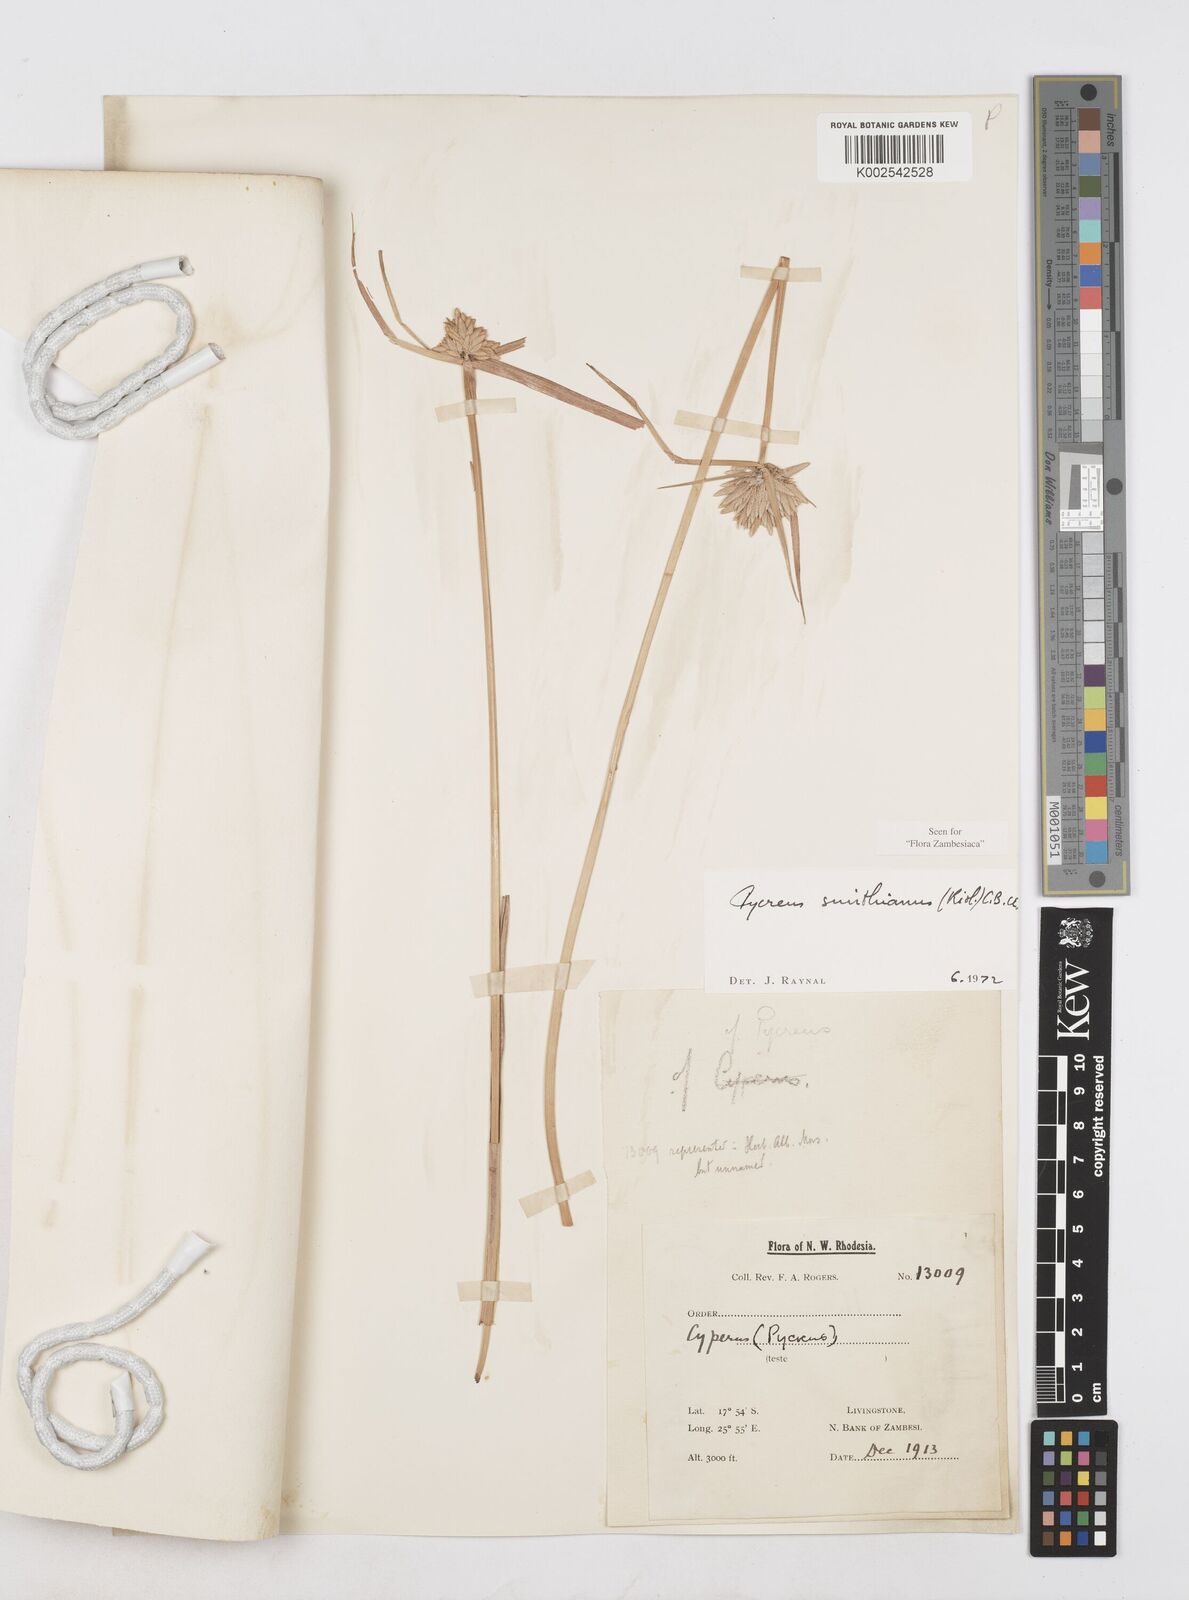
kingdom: Plantae
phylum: Tracheophyta
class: Liliopsida
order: Poales
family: Cyperaceae
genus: Cyperus
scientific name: Cyperus smithianus
